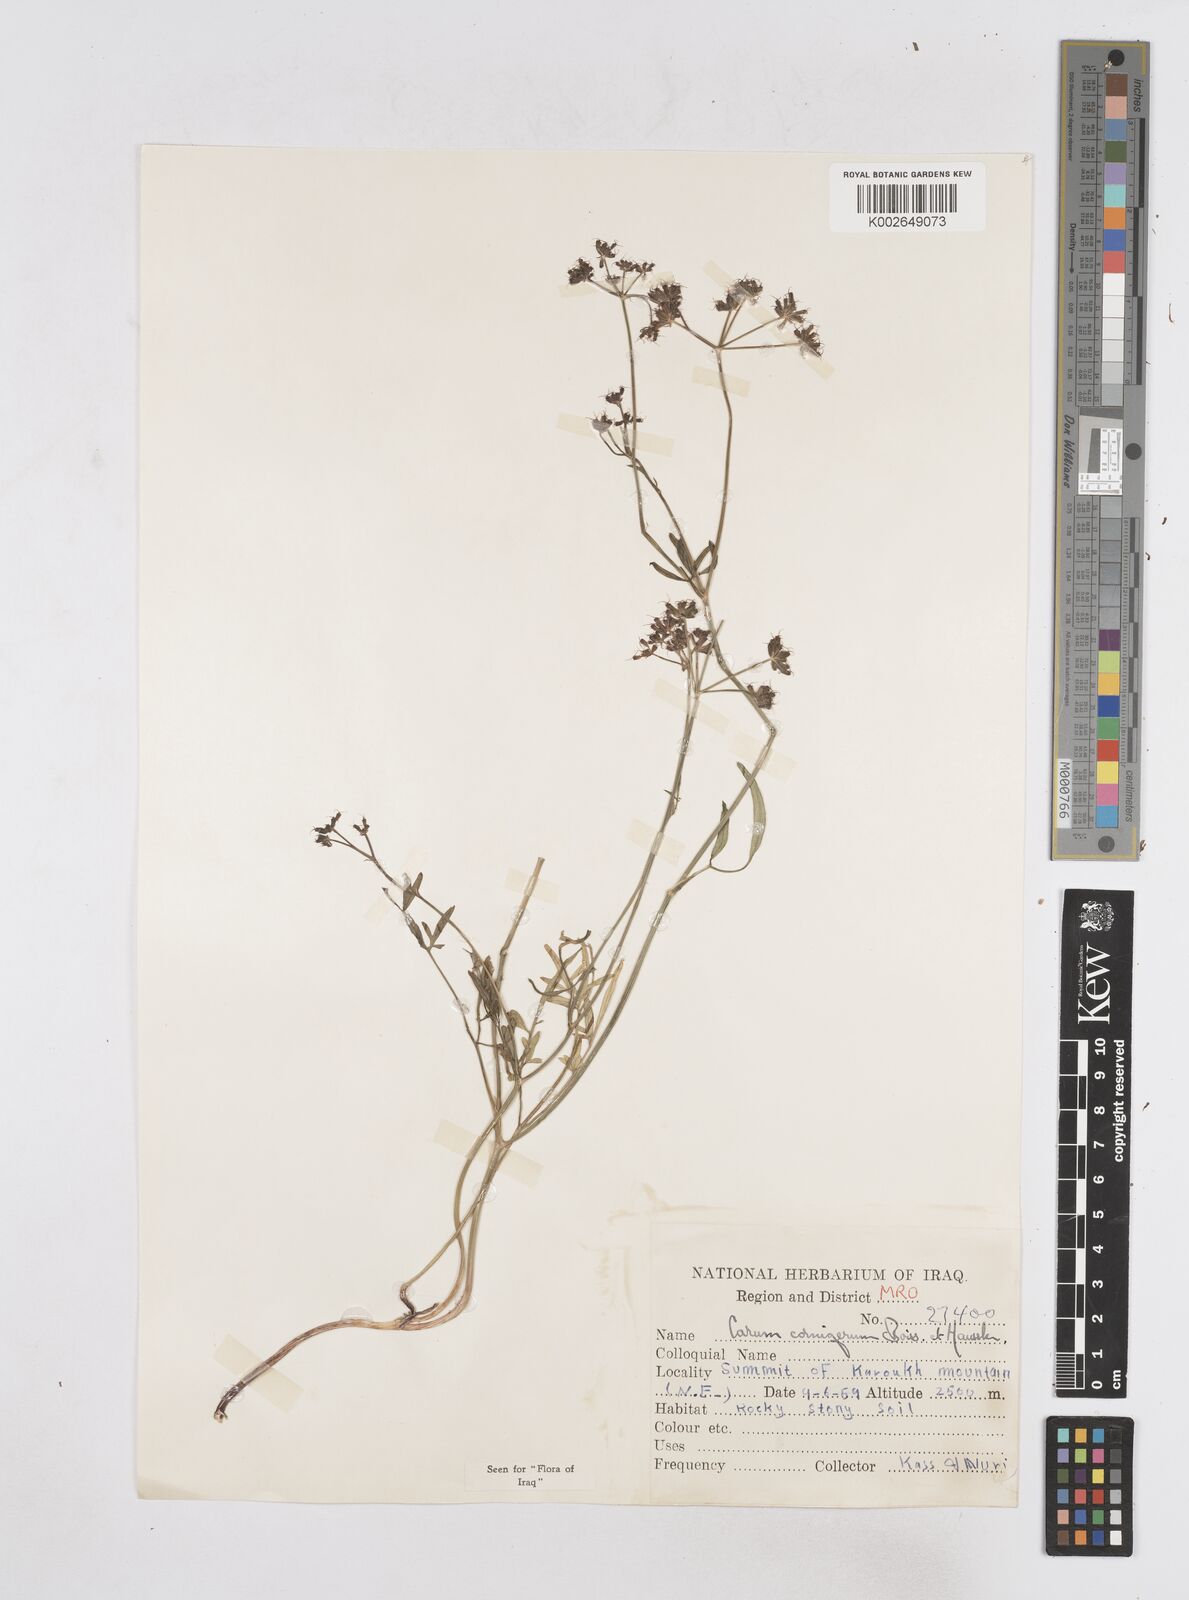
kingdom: Plantae
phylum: Tracheophyta
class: Magnoliopsida
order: Apiales
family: Apiaceae
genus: Bunium
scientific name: Bunium cornigerum
